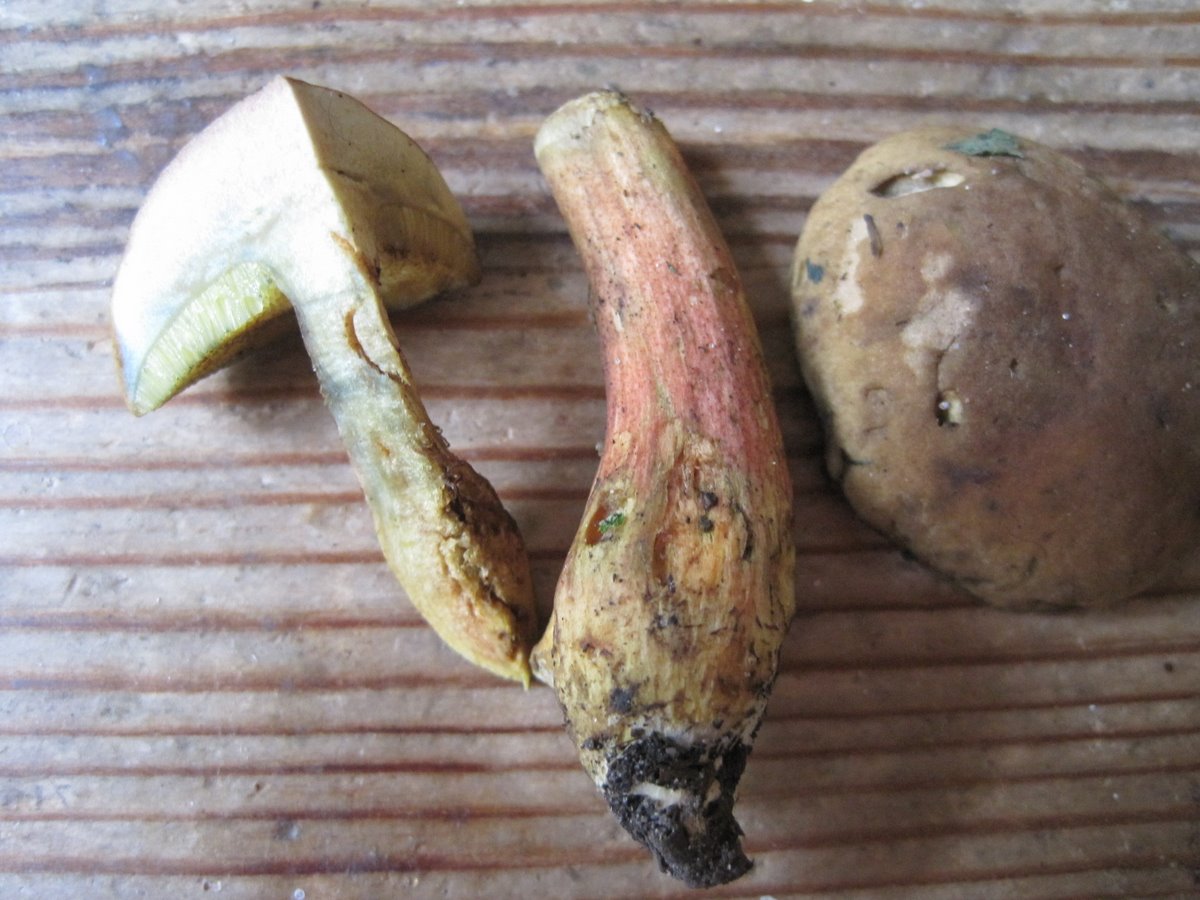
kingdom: Fungi
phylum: Basidiomycota
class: Agaricomycetes
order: Boletales
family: Boletaceae
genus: Hortiboletus
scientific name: Hortiboletus bubalinus
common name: aurora-rørhat
